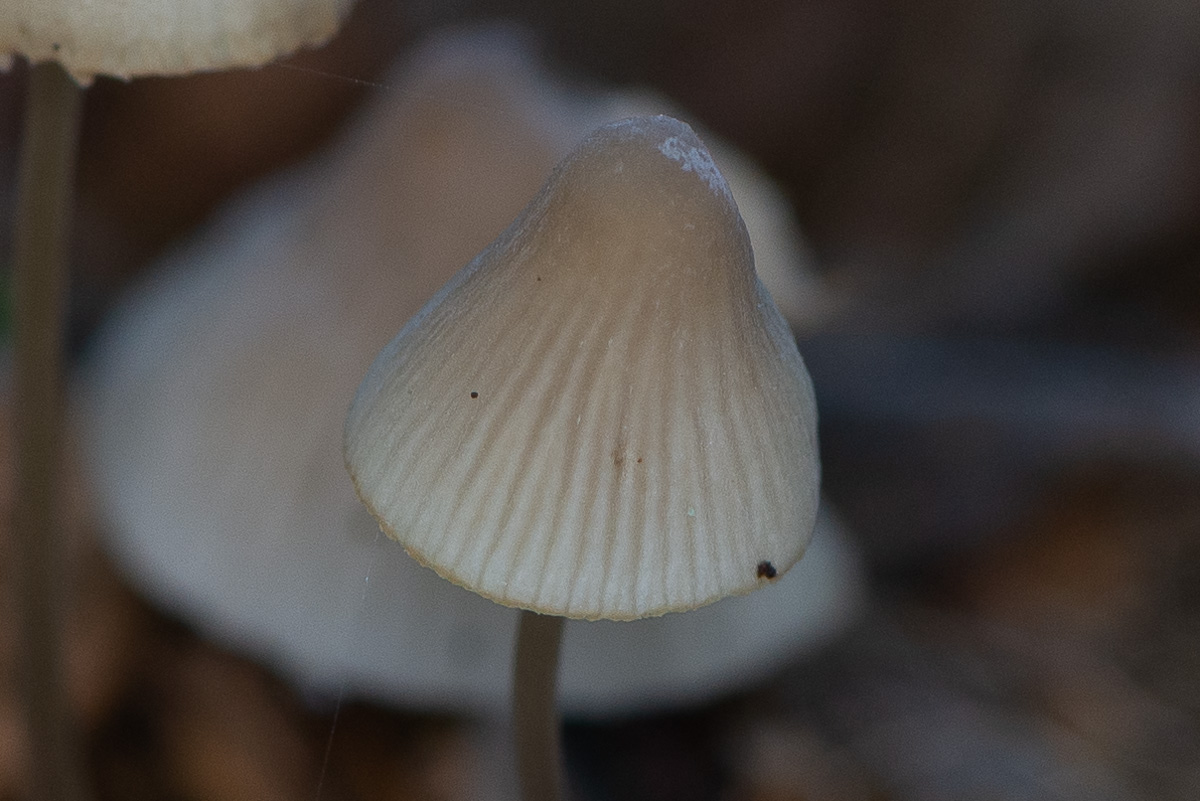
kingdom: Fungi
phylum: Basidiomycota
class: Agaricomycetes
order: Agaricales
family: Mycenaceae
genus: Mycena
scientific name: Mycena
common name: huesvamp
